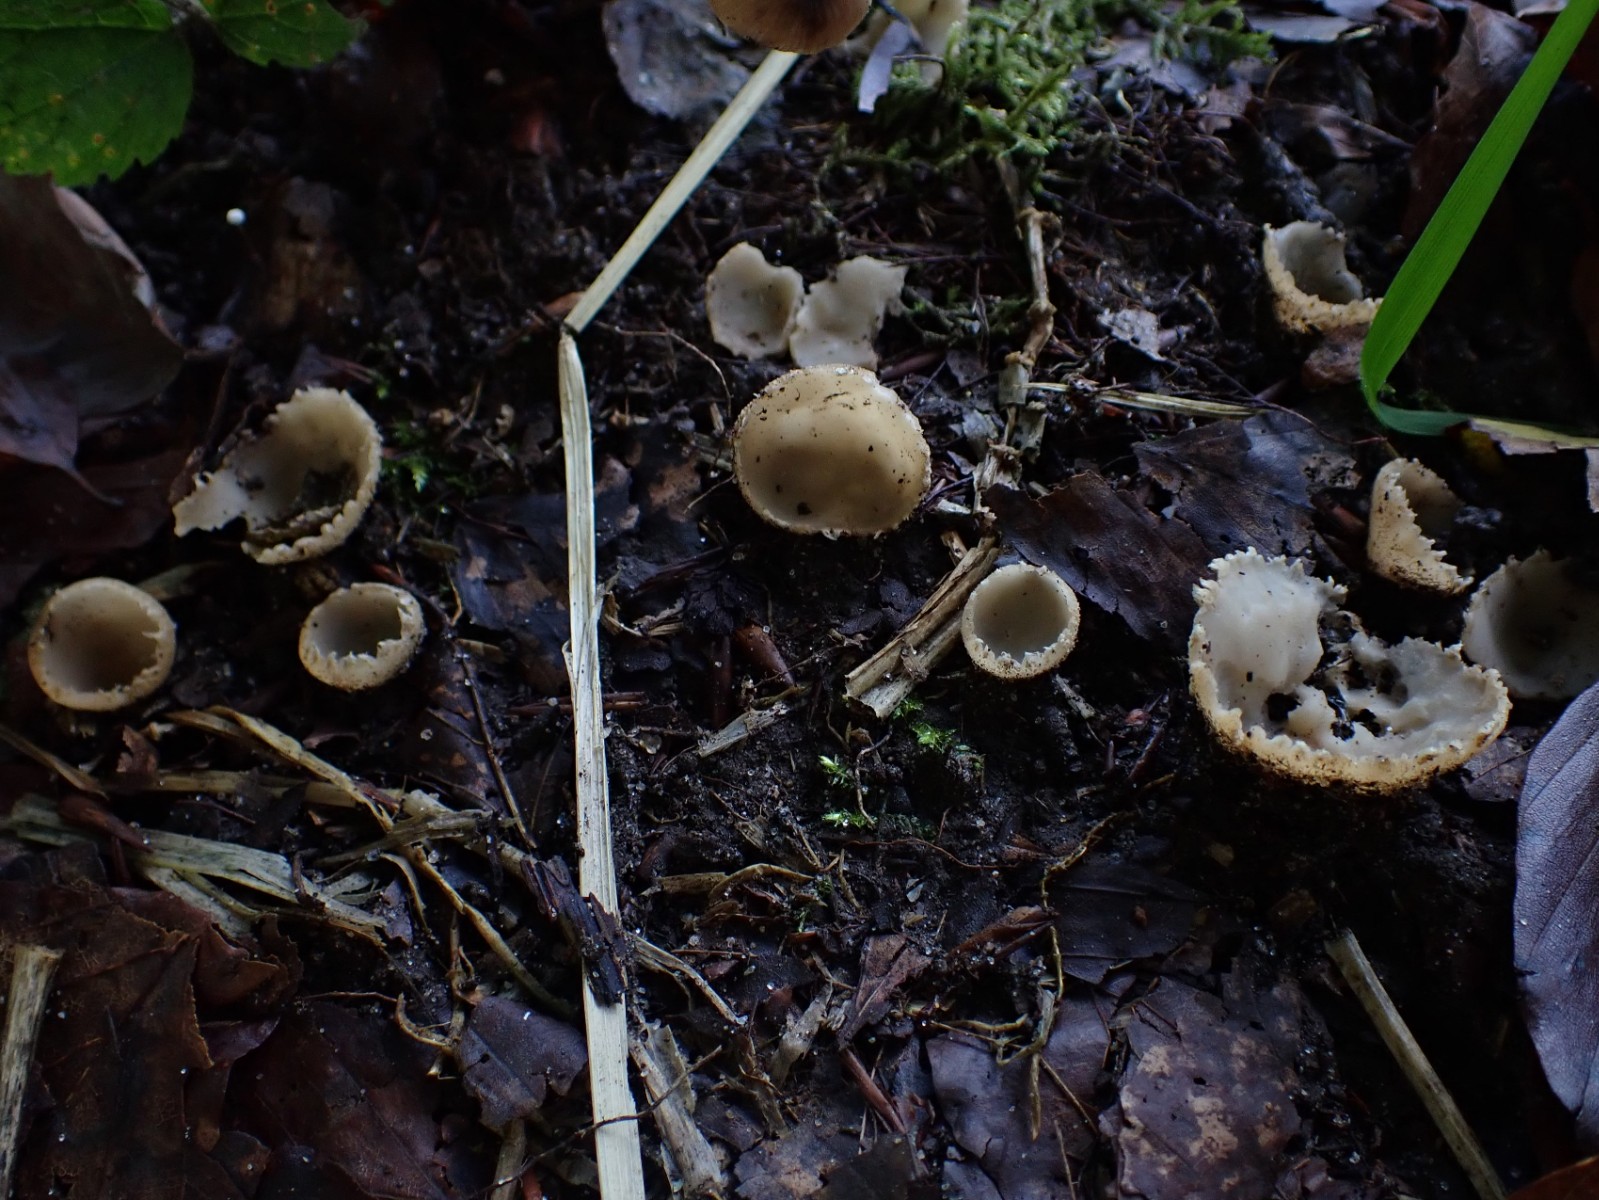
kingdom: Fungi
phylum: Ascomycota
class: Pezizomycetes
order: Pezizales
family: Pyronemataceae
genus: Tarzetta
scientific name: Tarzetta cupularis
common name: gulbrun pokalbæger
